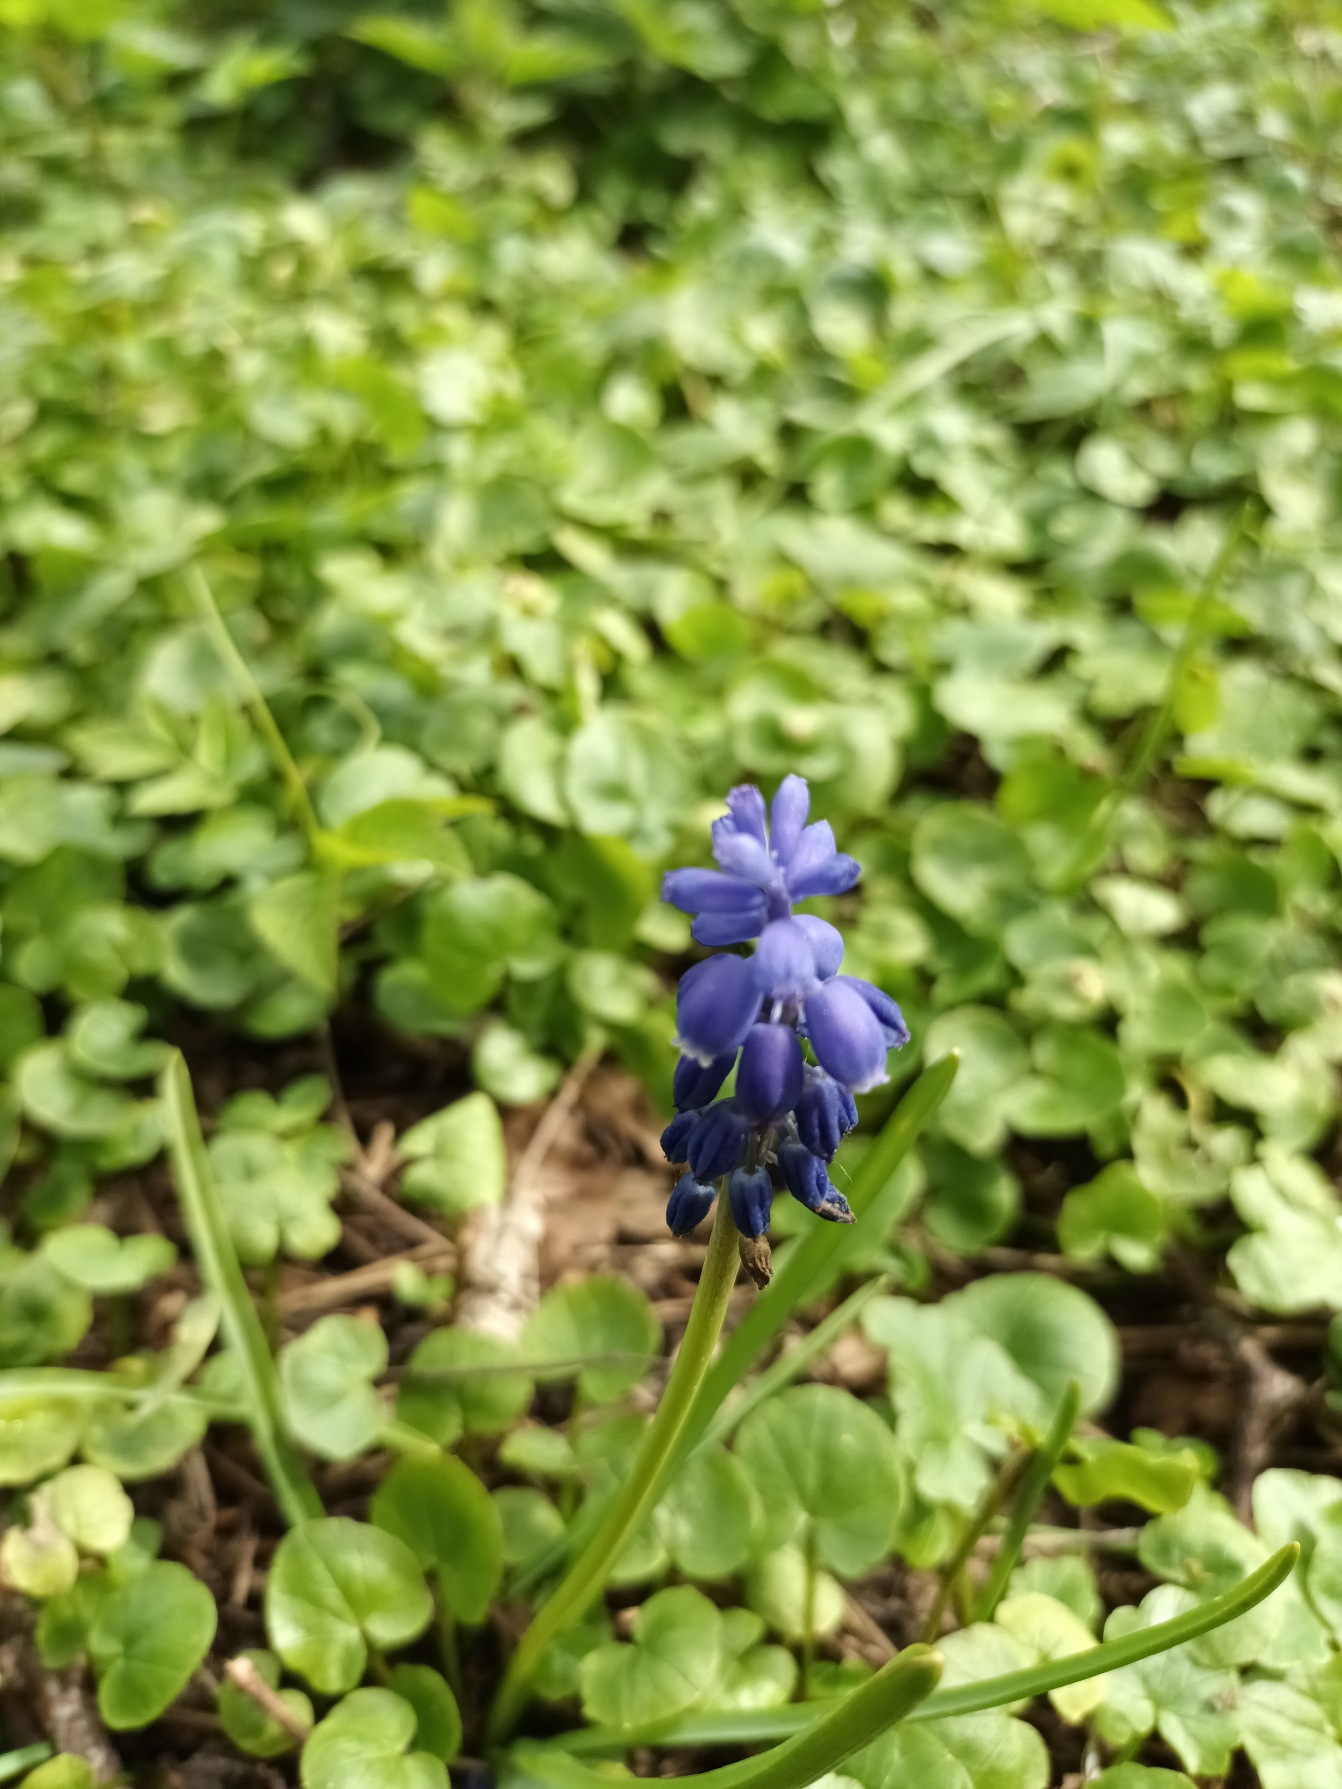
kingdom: Plantae
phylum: Tracheophyta
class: Liliopsida
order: Asparagales
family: Asparagaceae
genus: Muscari
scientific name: Muscari armeniacum
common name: Armensk perlehyacint
